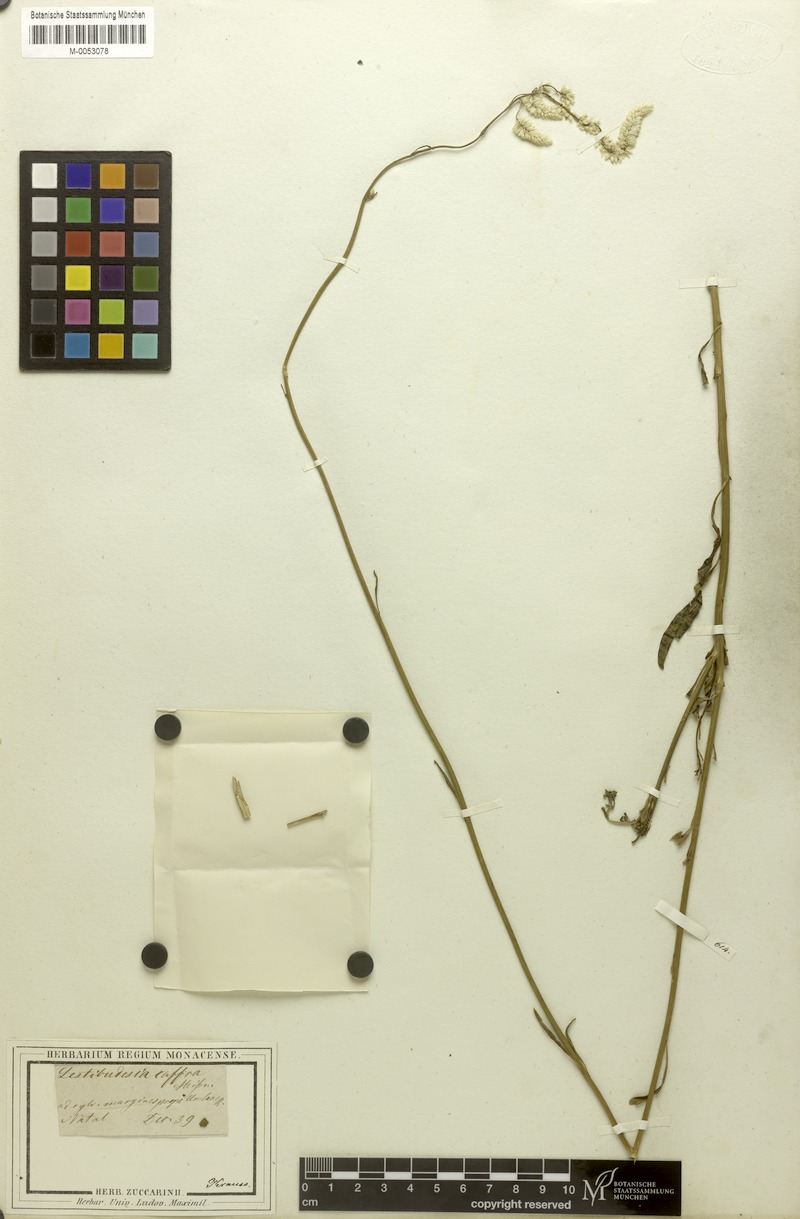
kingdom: Plantae
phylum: Tracheophyta
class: Magnoliopsida
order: Caryophyllales
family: Amaranthaceae
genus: Celosia
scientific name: Celosia virgata
